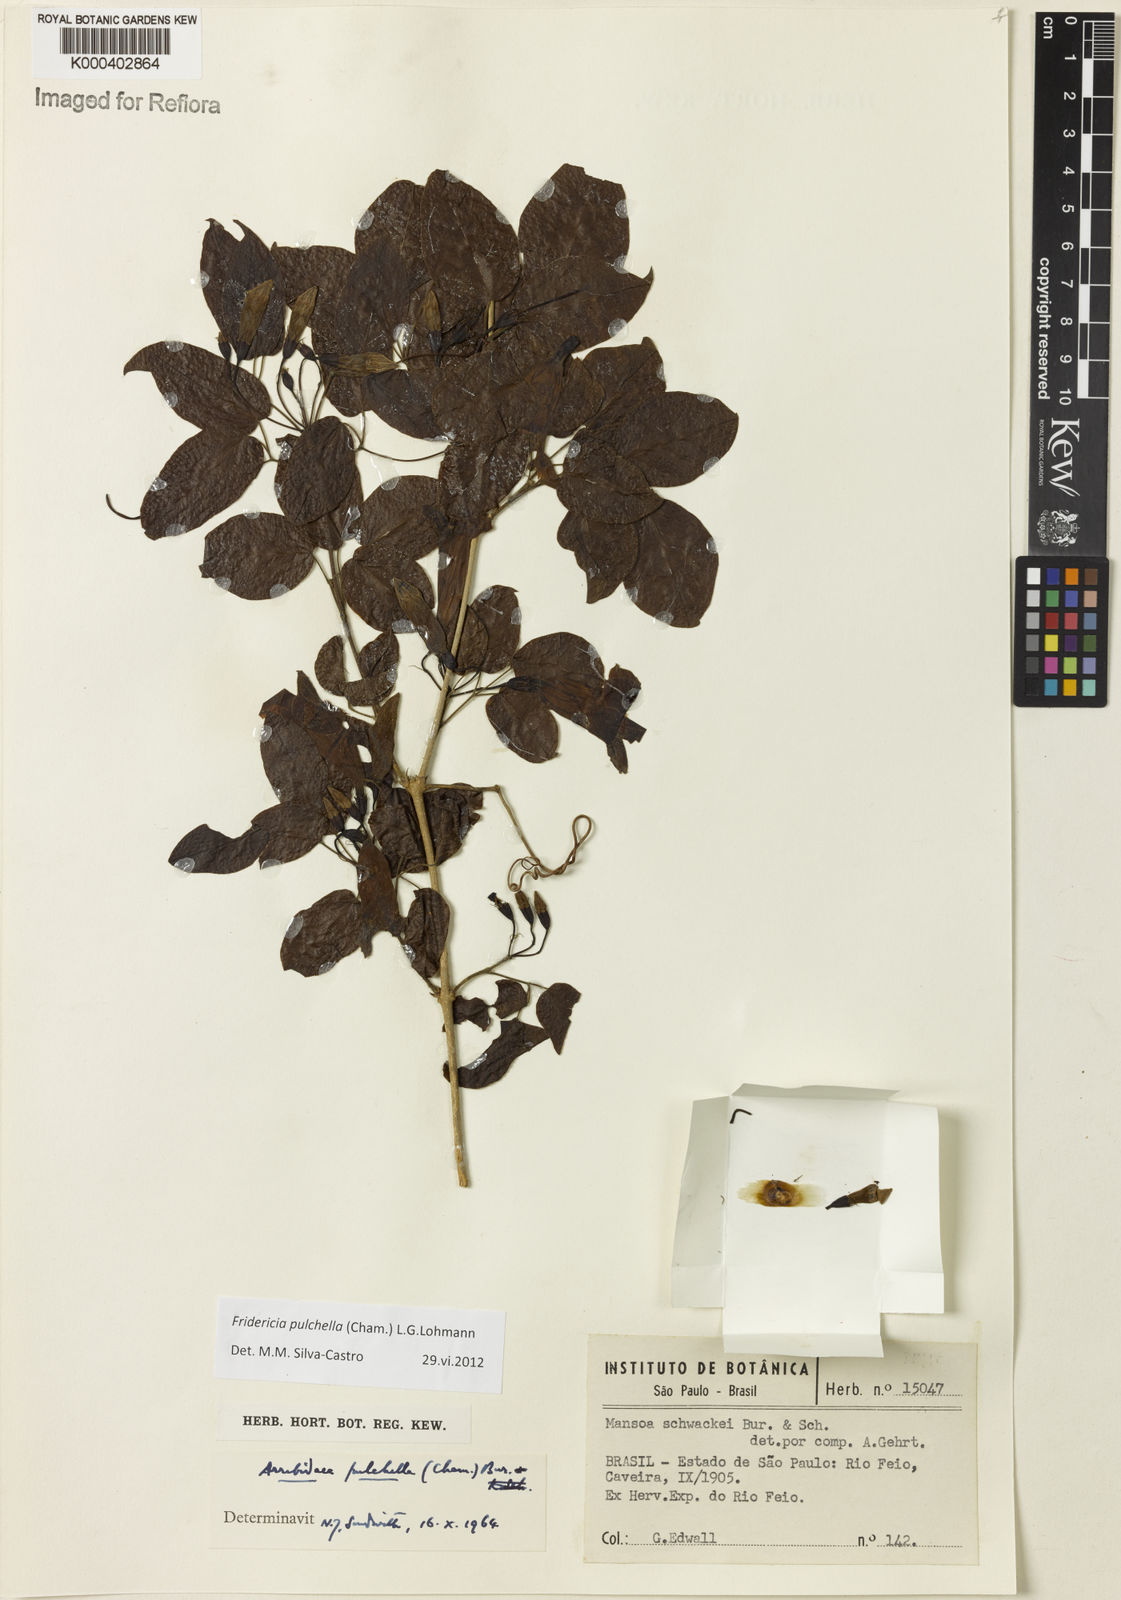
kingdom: Plantae
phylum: Tracheophyta
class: Magnoliopsida
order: Lamiales
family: Bignoniaceae
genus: Fridericia
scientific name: Fridericia
